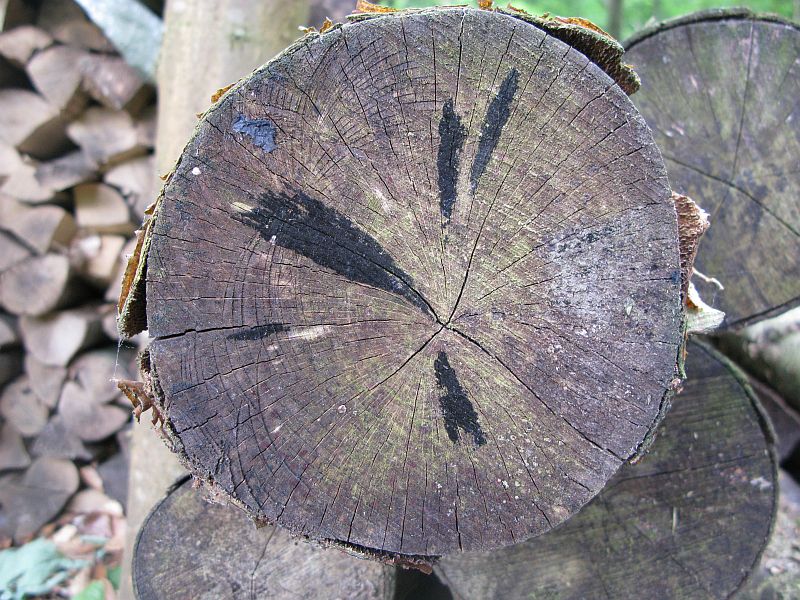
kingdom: Fungi
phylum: Ascomycota
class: Leotiomycetes
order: Helotiales
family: Helotiaceae
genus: Bispora
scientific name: Bispora pallescens
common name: måtte-snitskive
